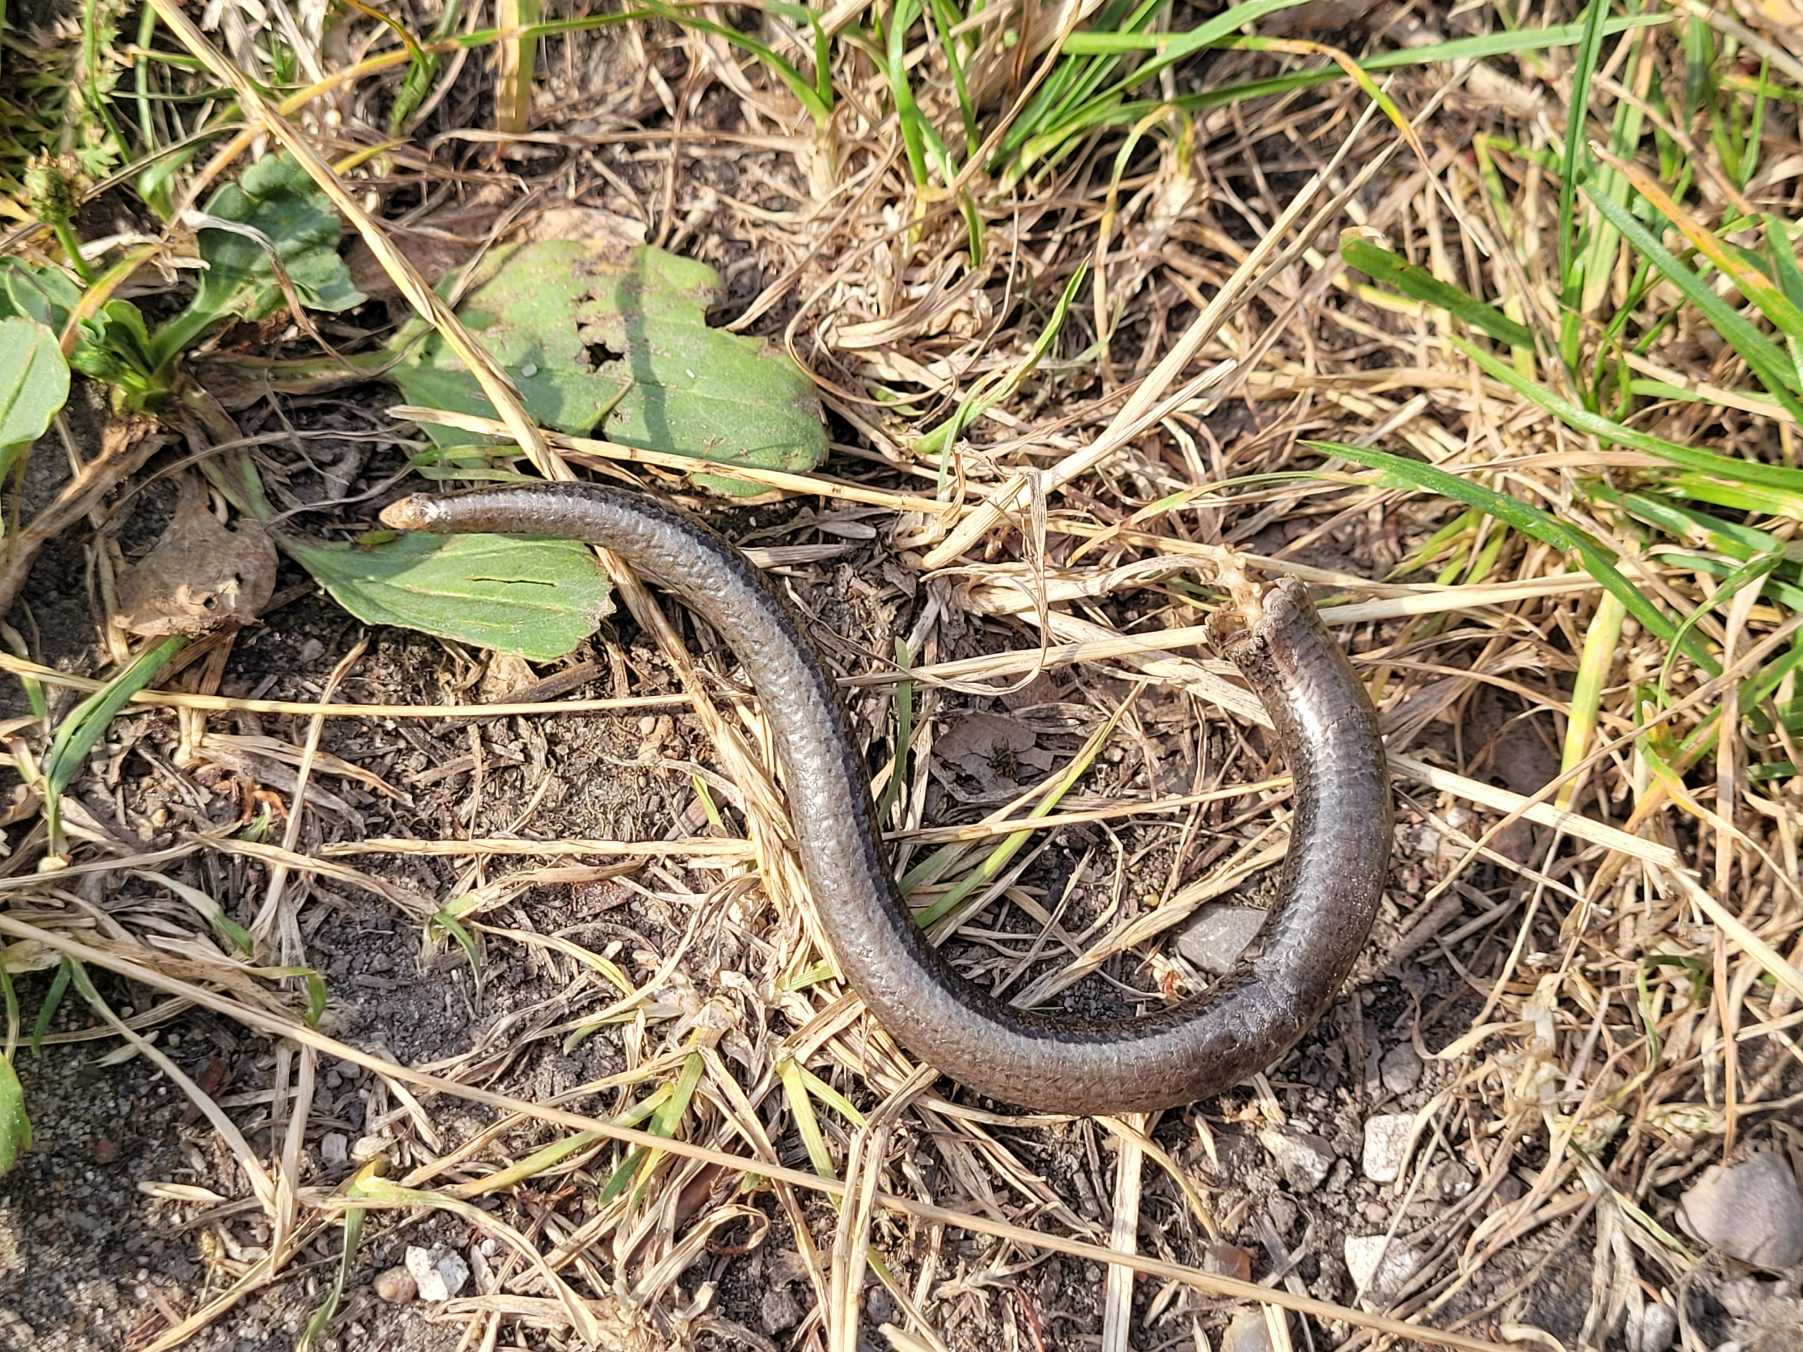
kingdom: Animalia
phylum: Chordata
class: Squamata
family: Anguidae
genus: Anguis
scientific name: Anguis fragilis
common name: Stålorm
